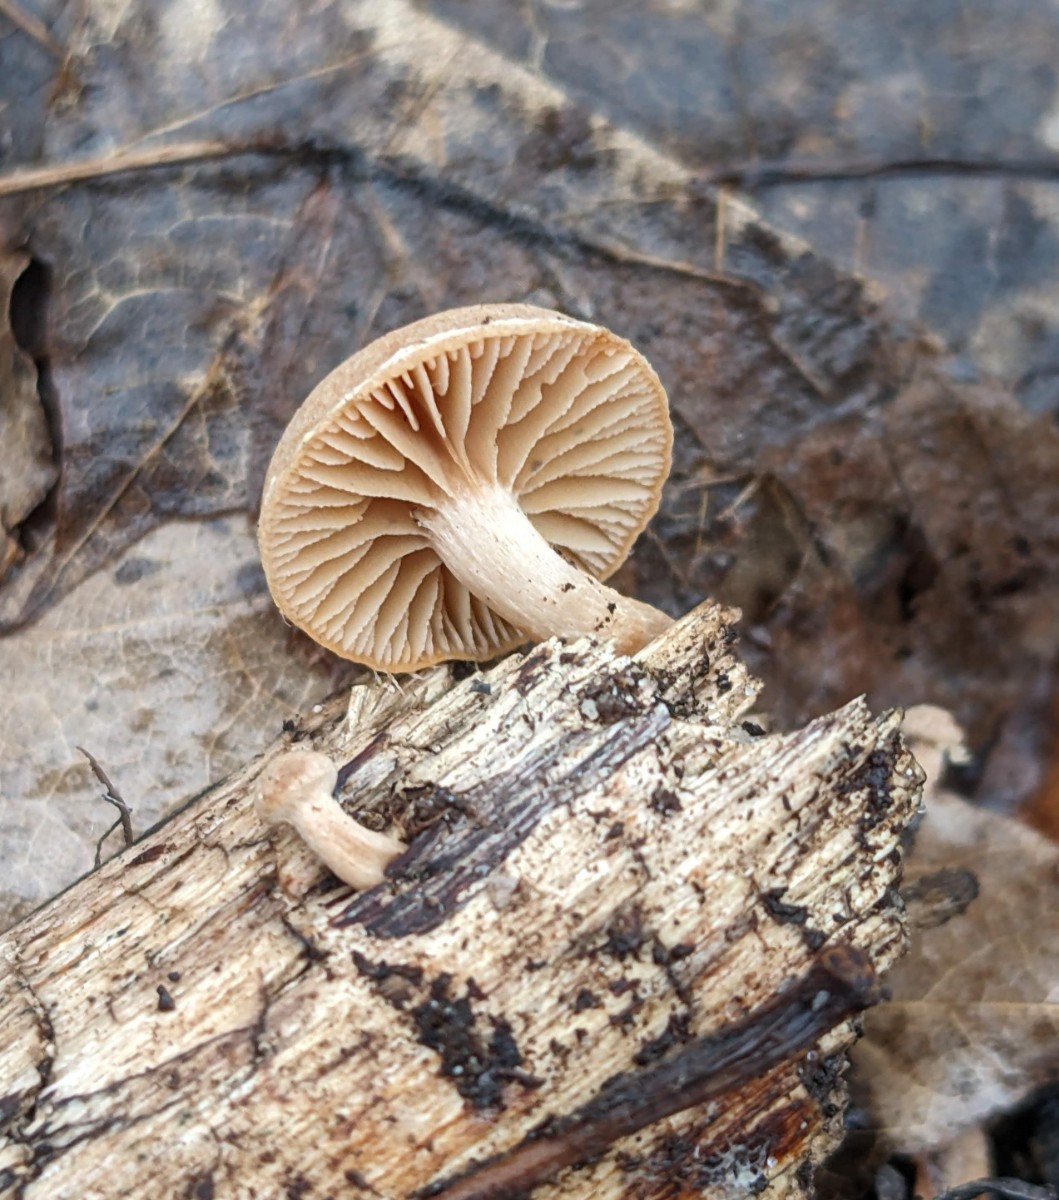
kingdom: Fungi
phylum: Basidiomycota
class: Agaricomycetes
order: Agaricales
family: Tubariaceae
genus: Tubaria
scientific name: Tubaria furfuracea
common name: kliddet fnughat
